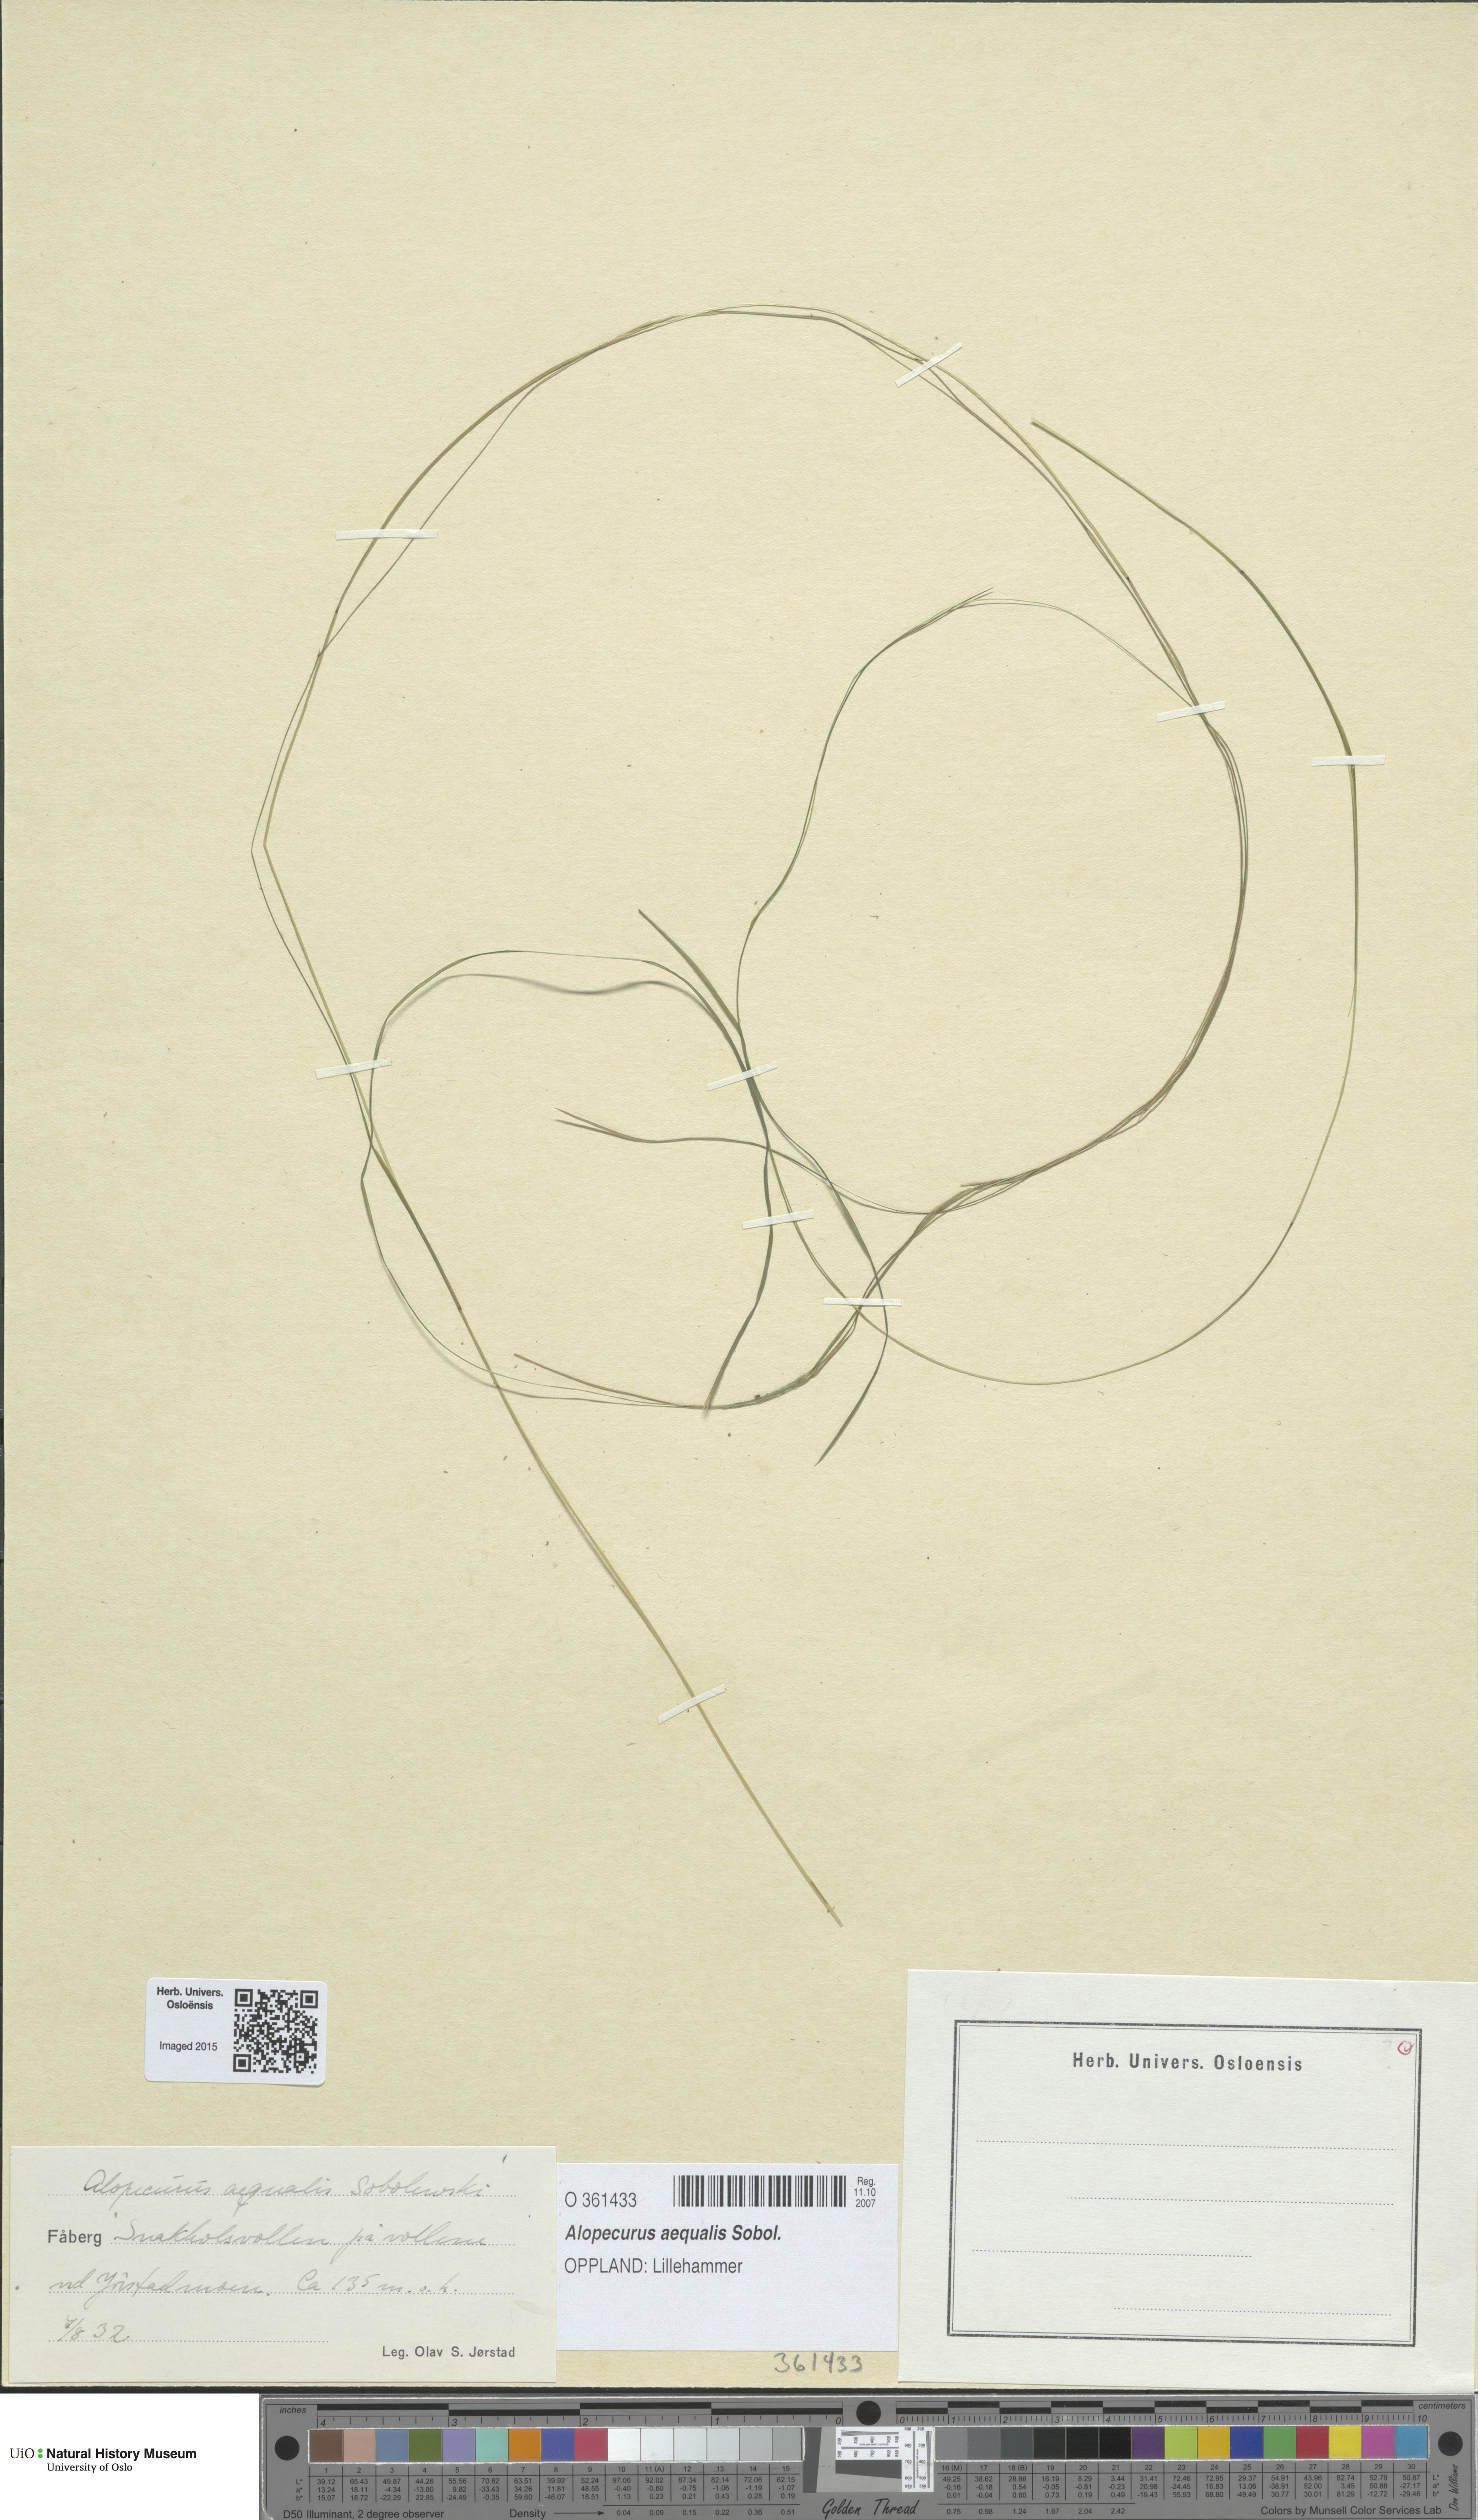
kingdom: Plantae
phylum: Tracheophyta
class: Liliopsida
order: Poales
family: Poaceae
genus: Alopecurus
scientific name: Alopecurus aequalis
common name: Orange foxtail
